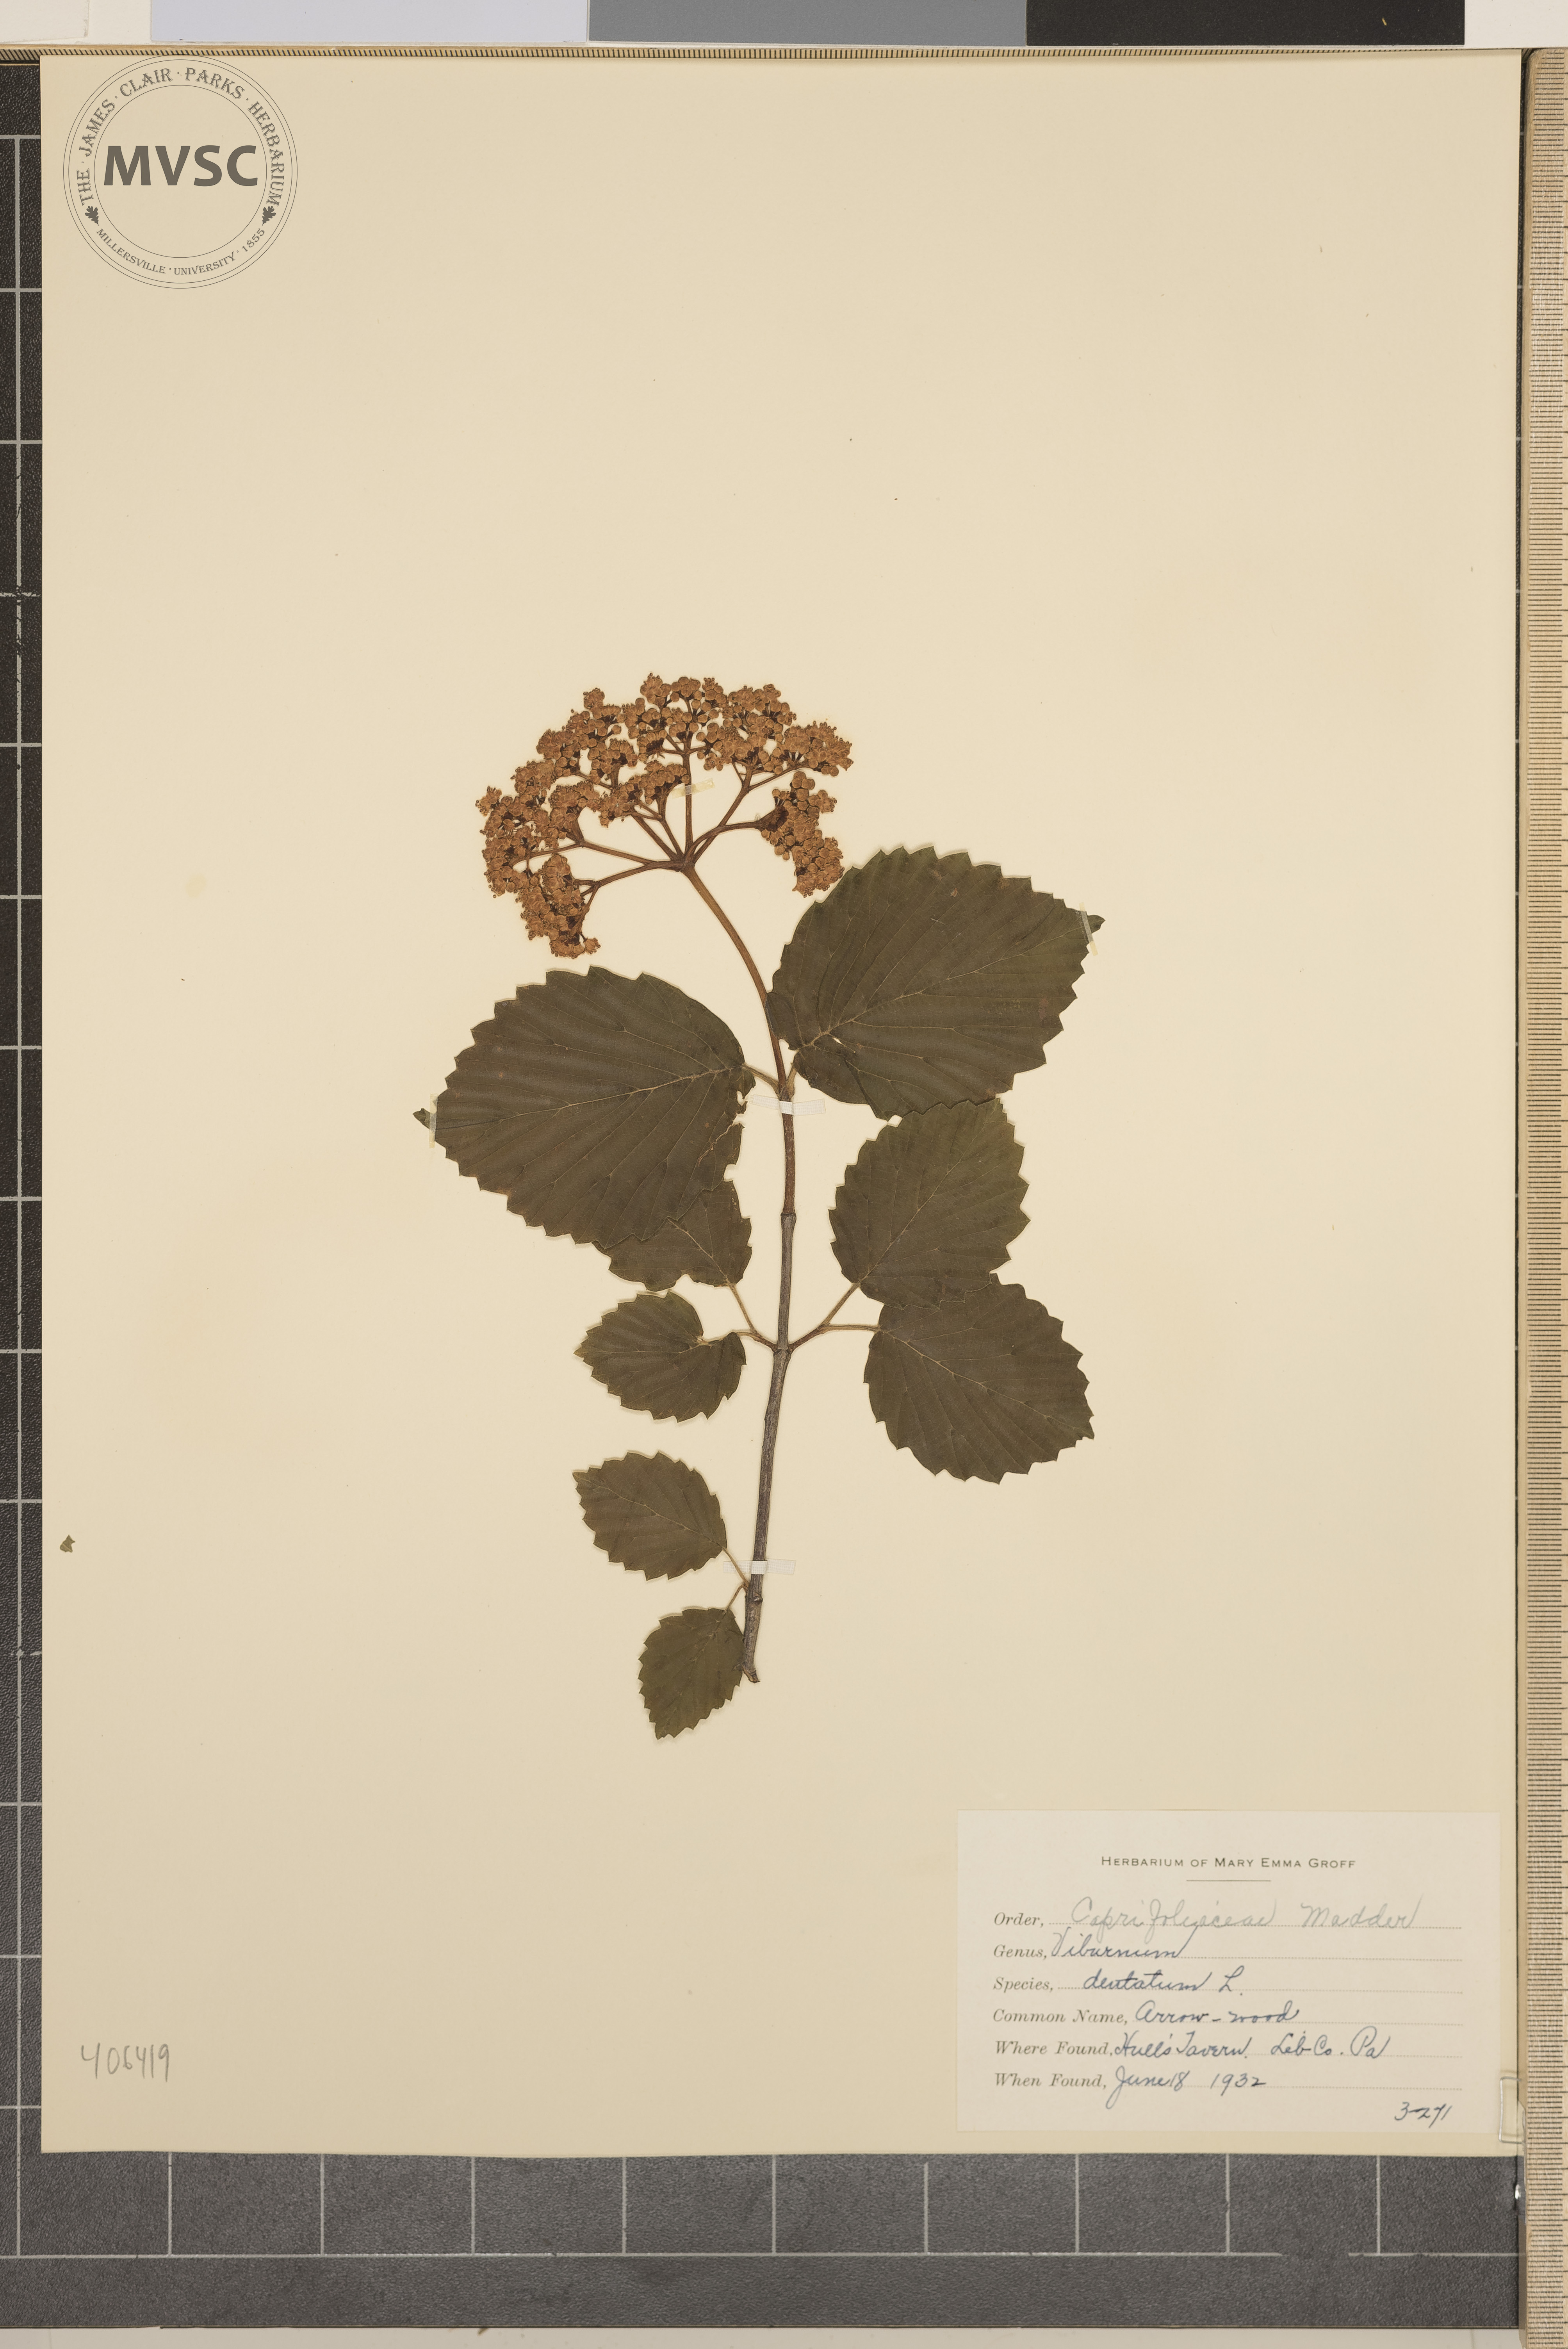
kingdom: Plantae
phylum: Tracheophyta
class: Magnoliopsida
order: Dipsacales
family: Viburnaceae
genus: Viburnum
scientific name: Viburnum dentatum
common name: Arrow-wood
